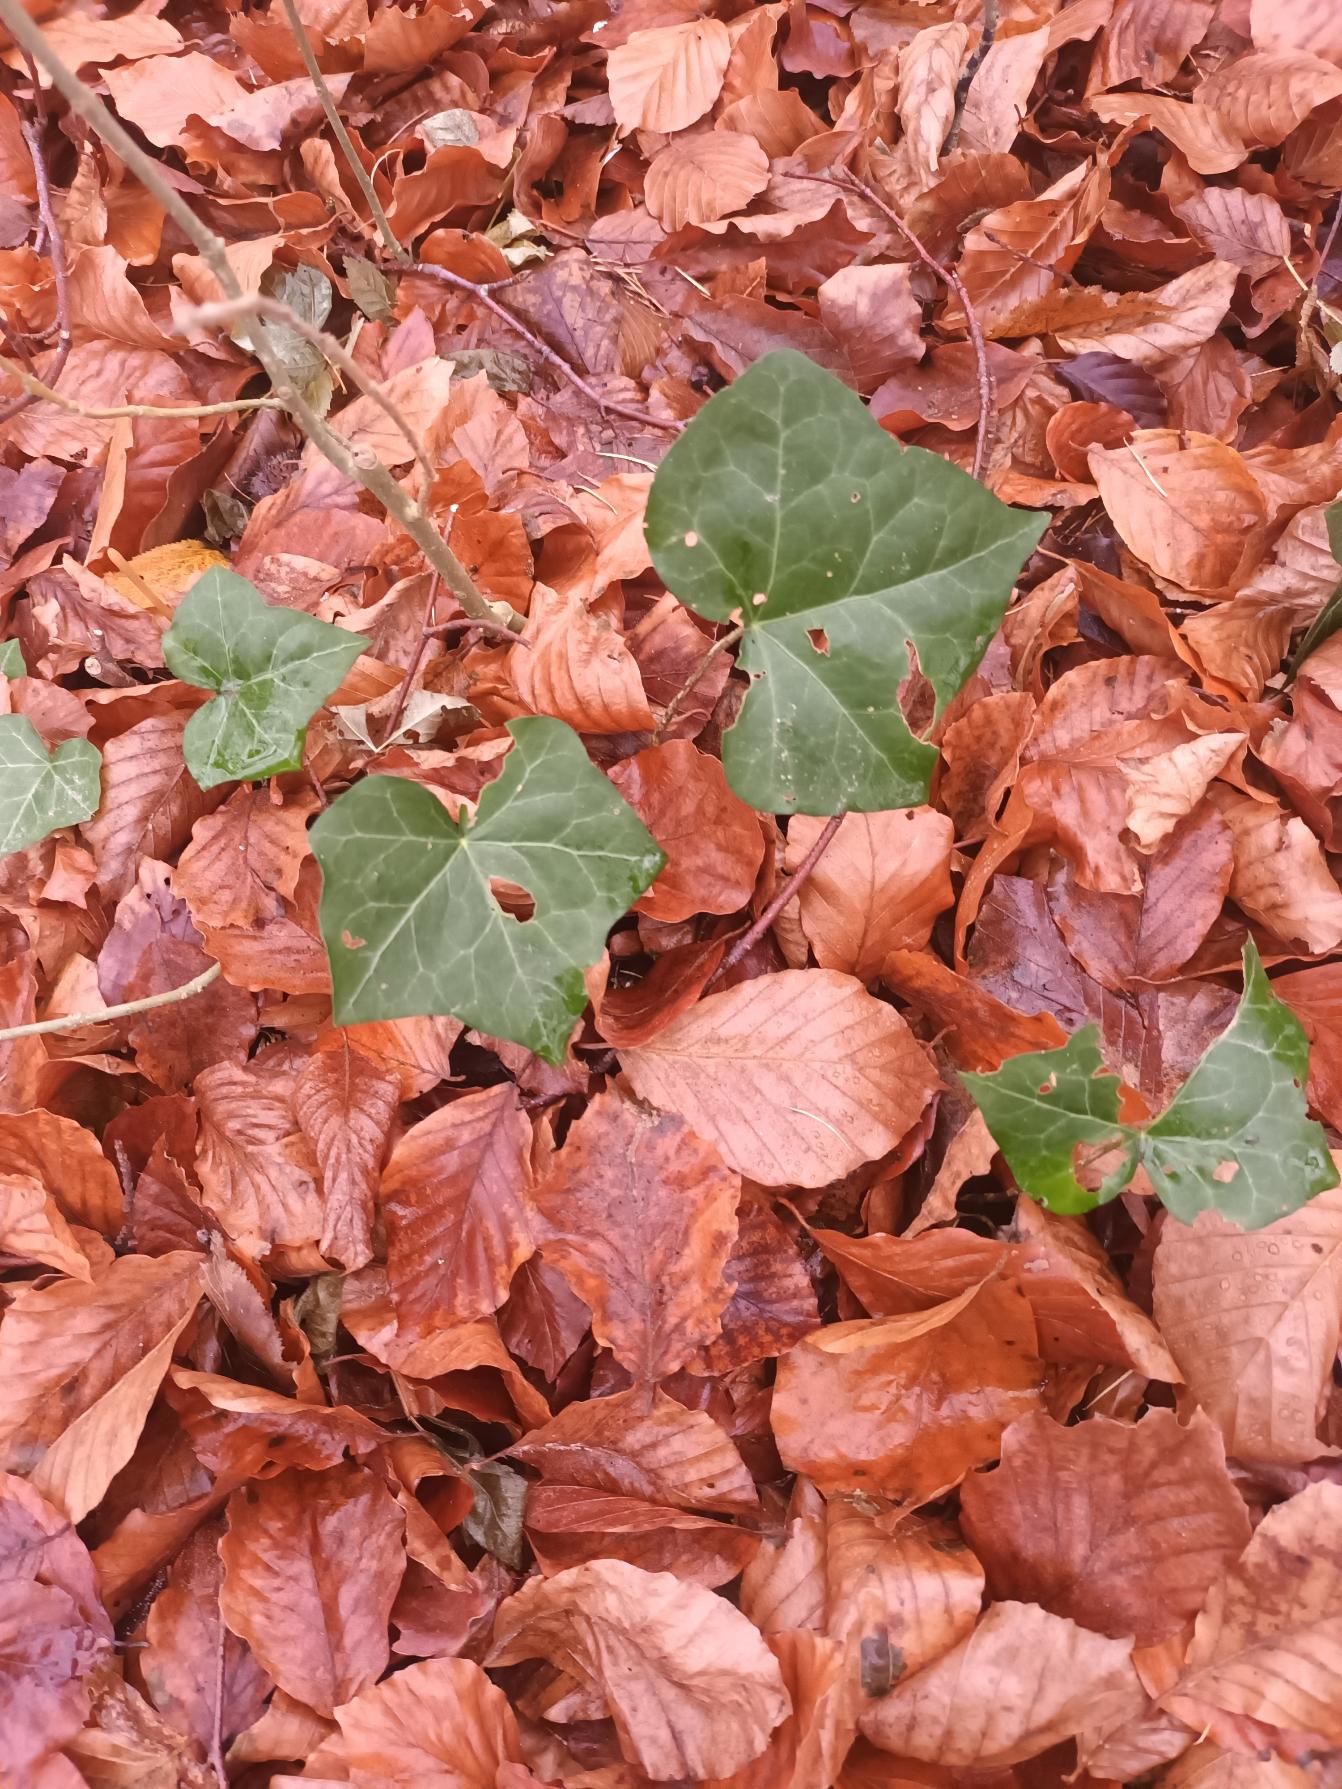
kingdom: Plantae
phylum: Tracheophyta
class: Magnoliopsida
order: Apiales
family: Araliaceae
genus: Hedera
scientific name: Hedera hibernica
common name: Irsk vedbend
